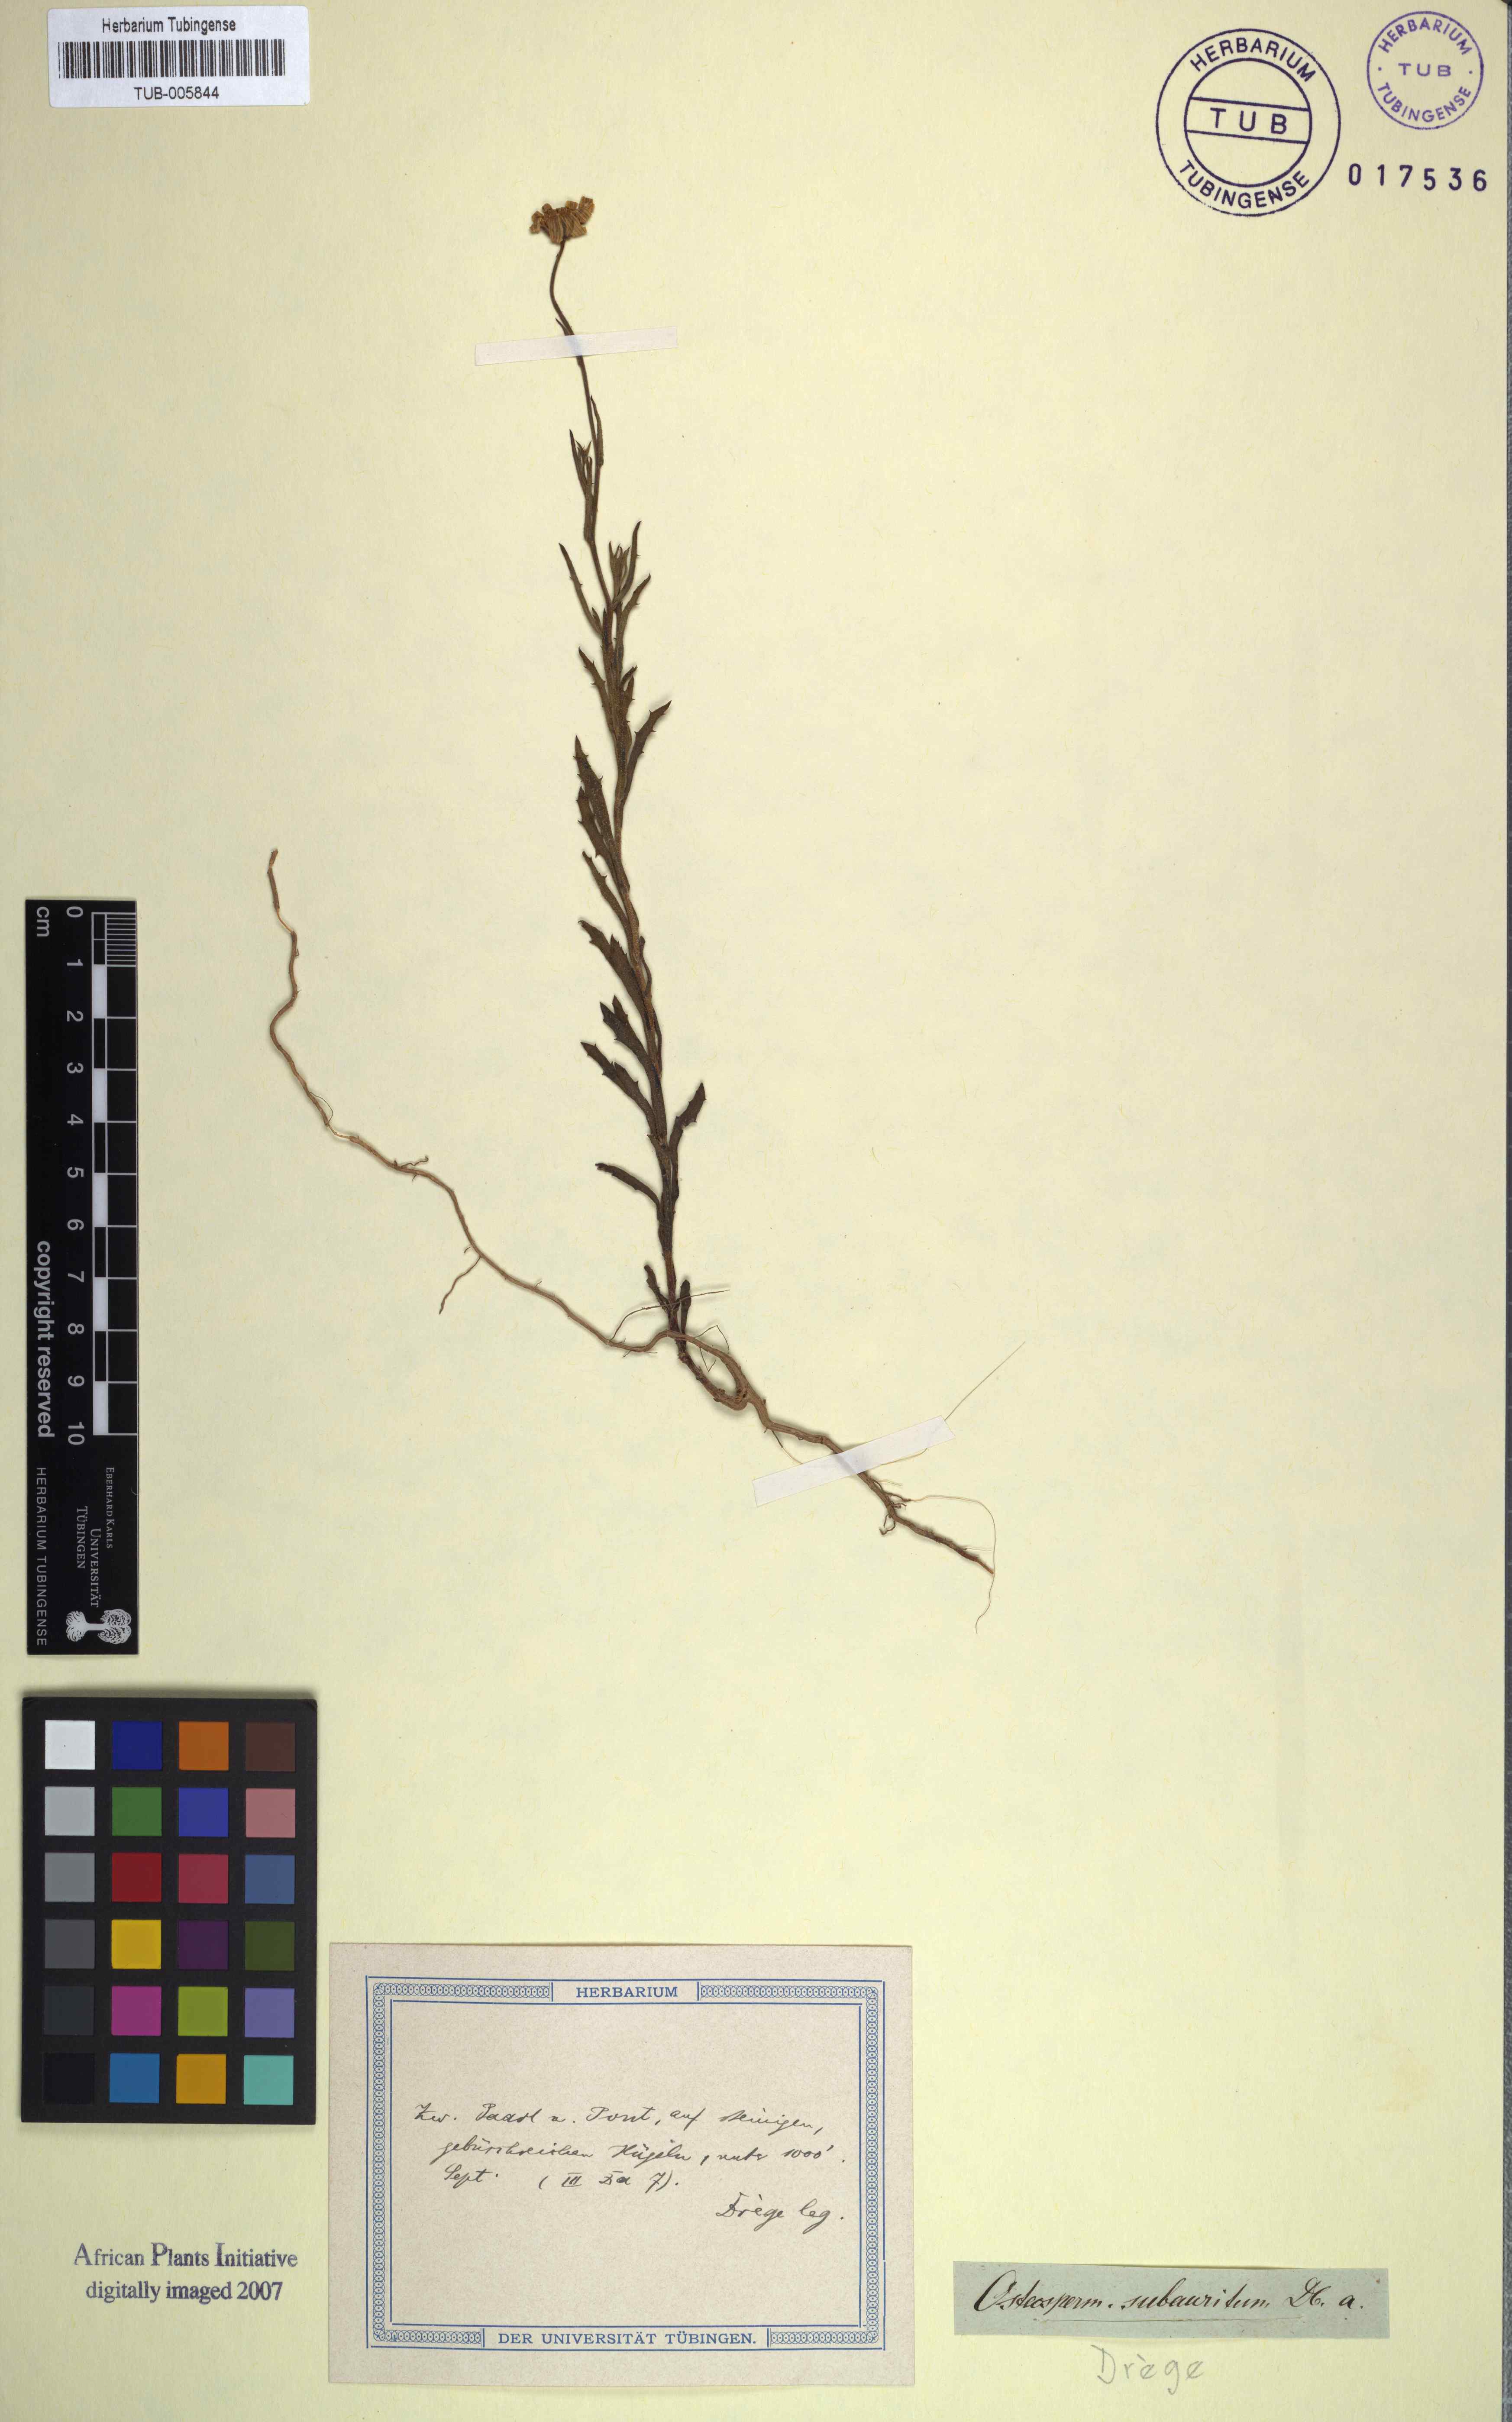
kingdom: Plantae
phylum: Tracheophyta
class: Magnoliopsida
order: Malpighiales
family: Malpighiaceae
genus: Tripteris
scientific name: Tripteris
